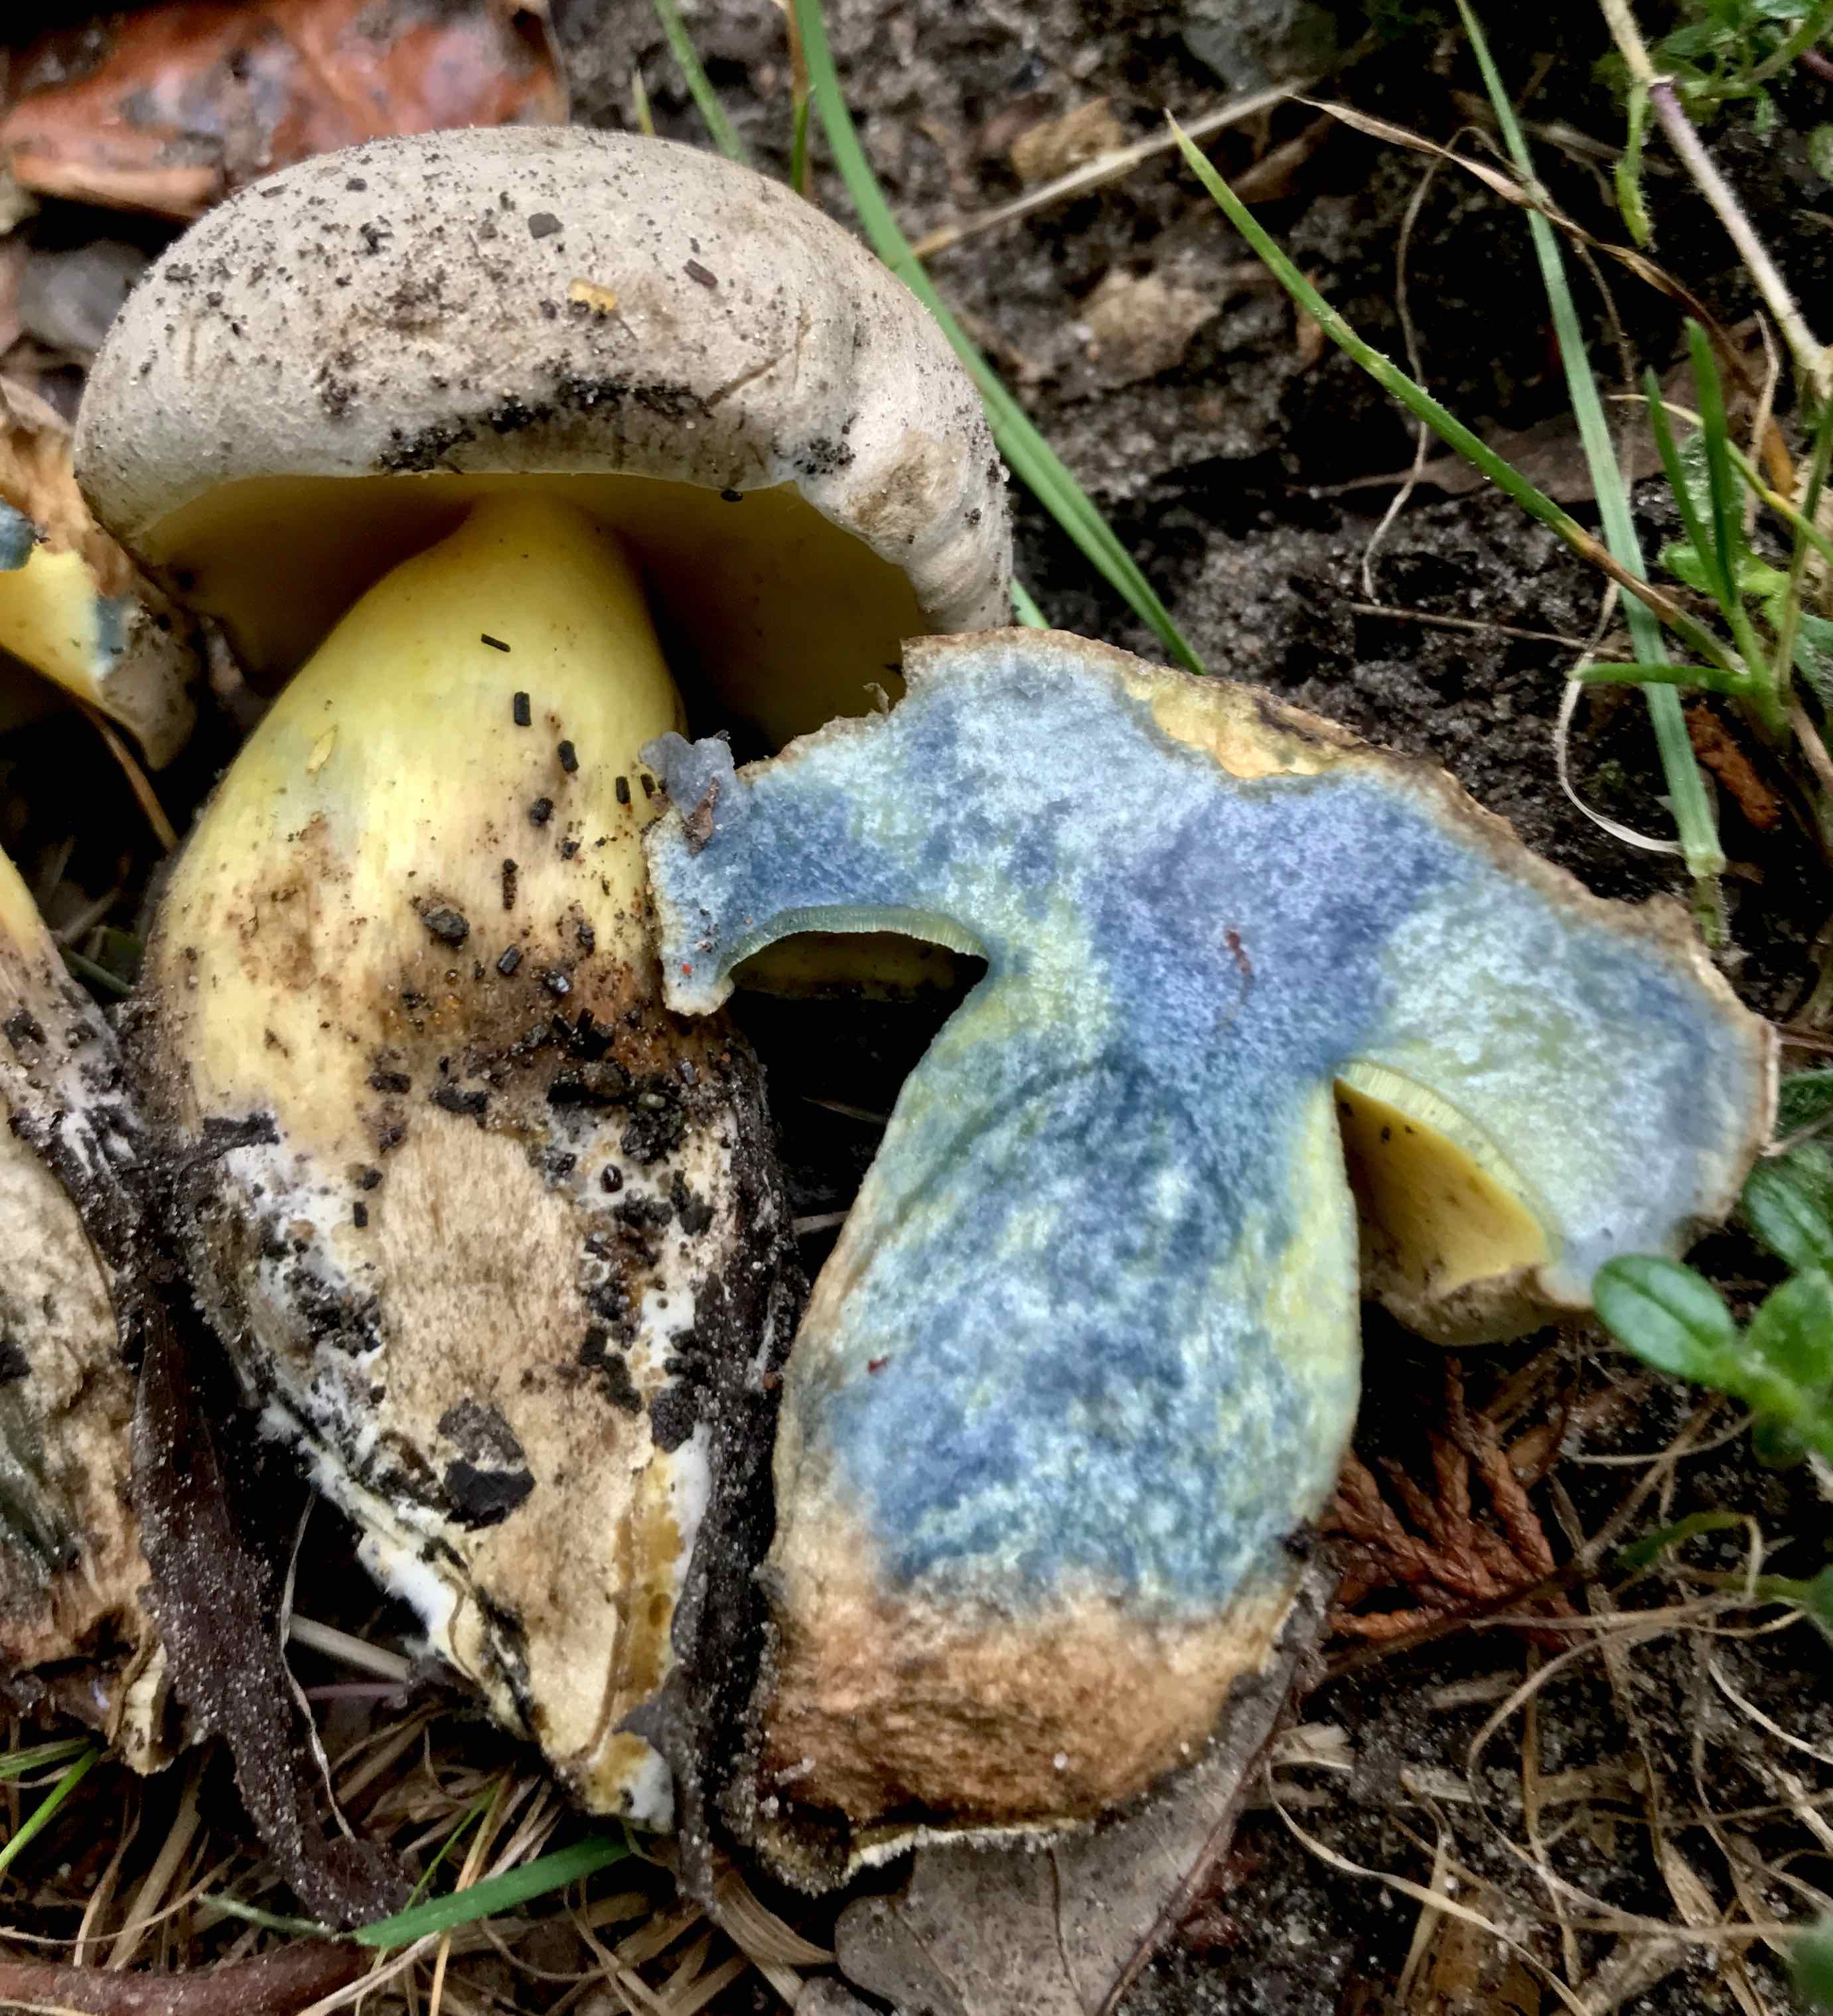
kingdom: Fungi
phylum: Basidiomycota
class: Agaricomycetes
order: Boletales
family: Boletaceae
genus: Caloboletus
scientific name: Caloboletus radicans
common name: rod-rørhat
